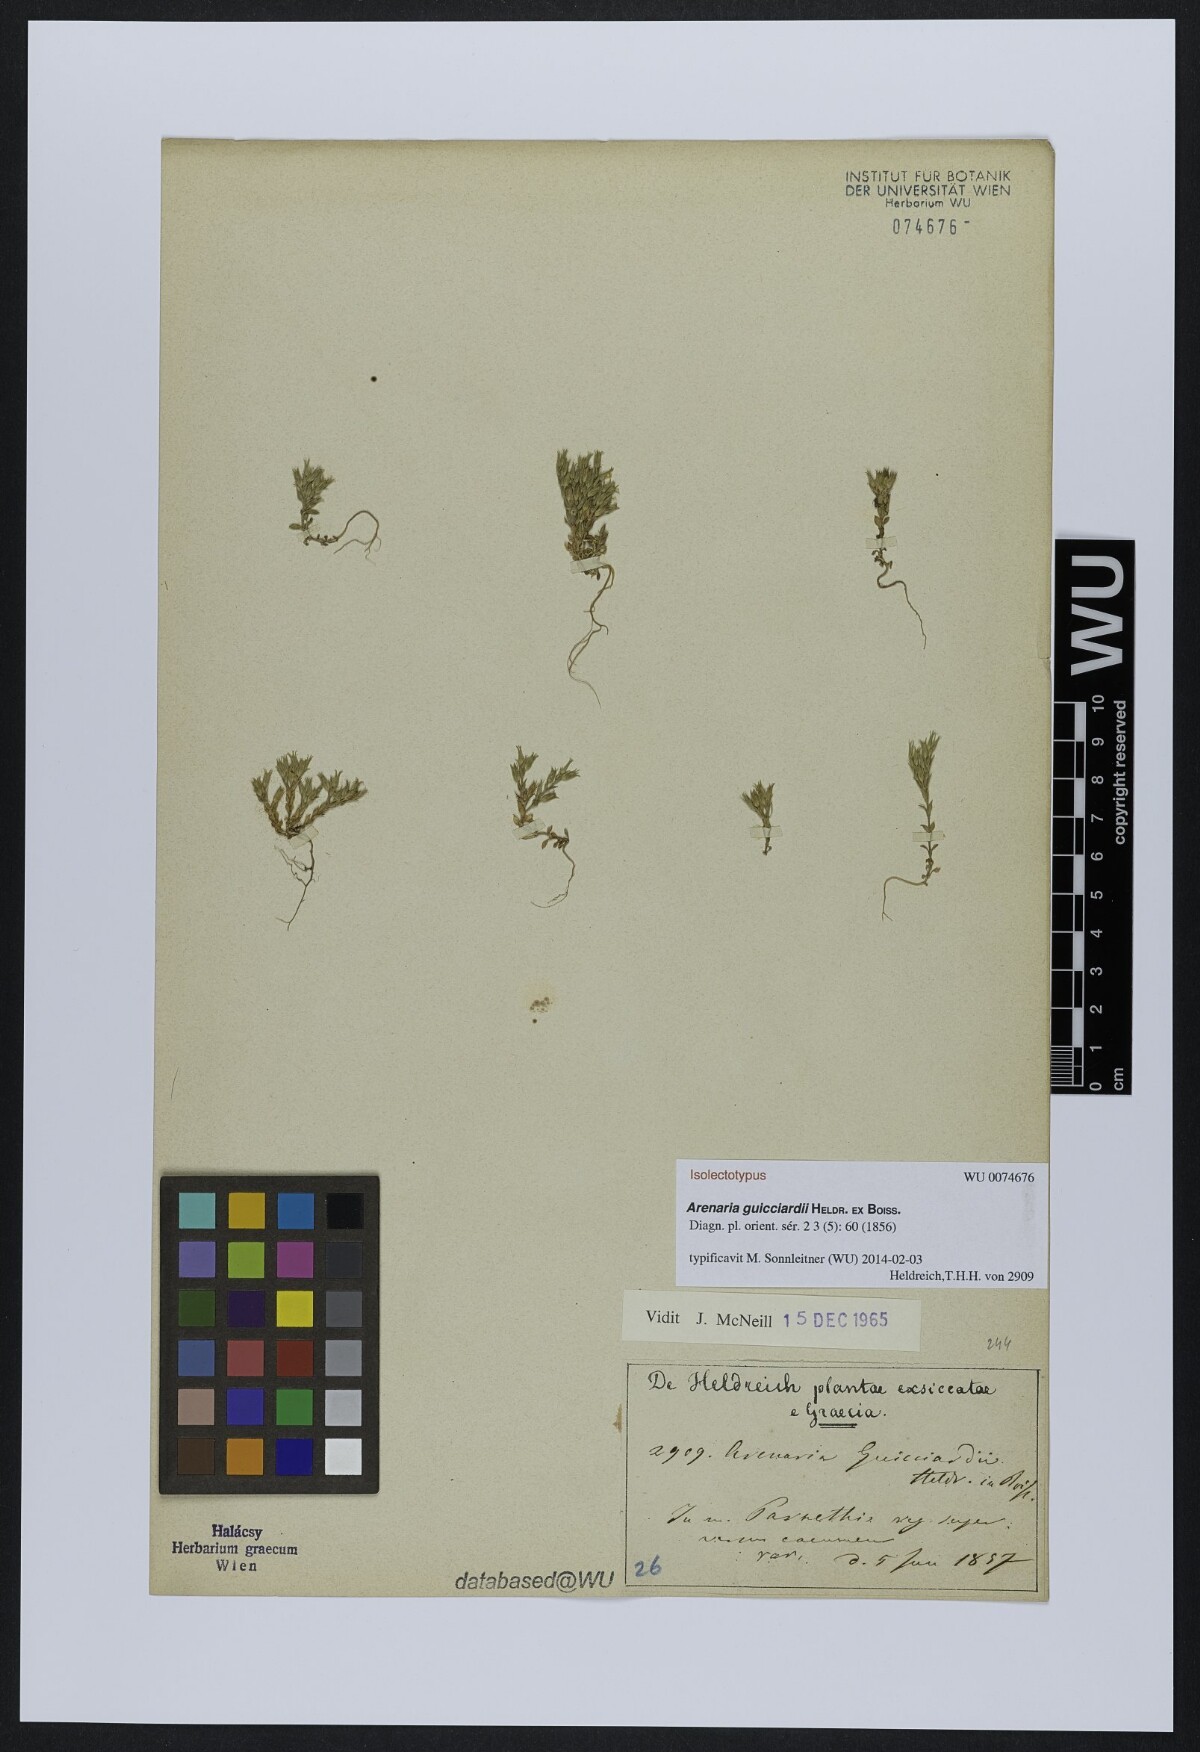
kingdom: Plantae
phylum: Tracheophyta
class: Magnoliopsida
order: Caryophyllales
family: Caryophyllaceae
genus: Arenaria
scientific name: Arenaria guicciardii
